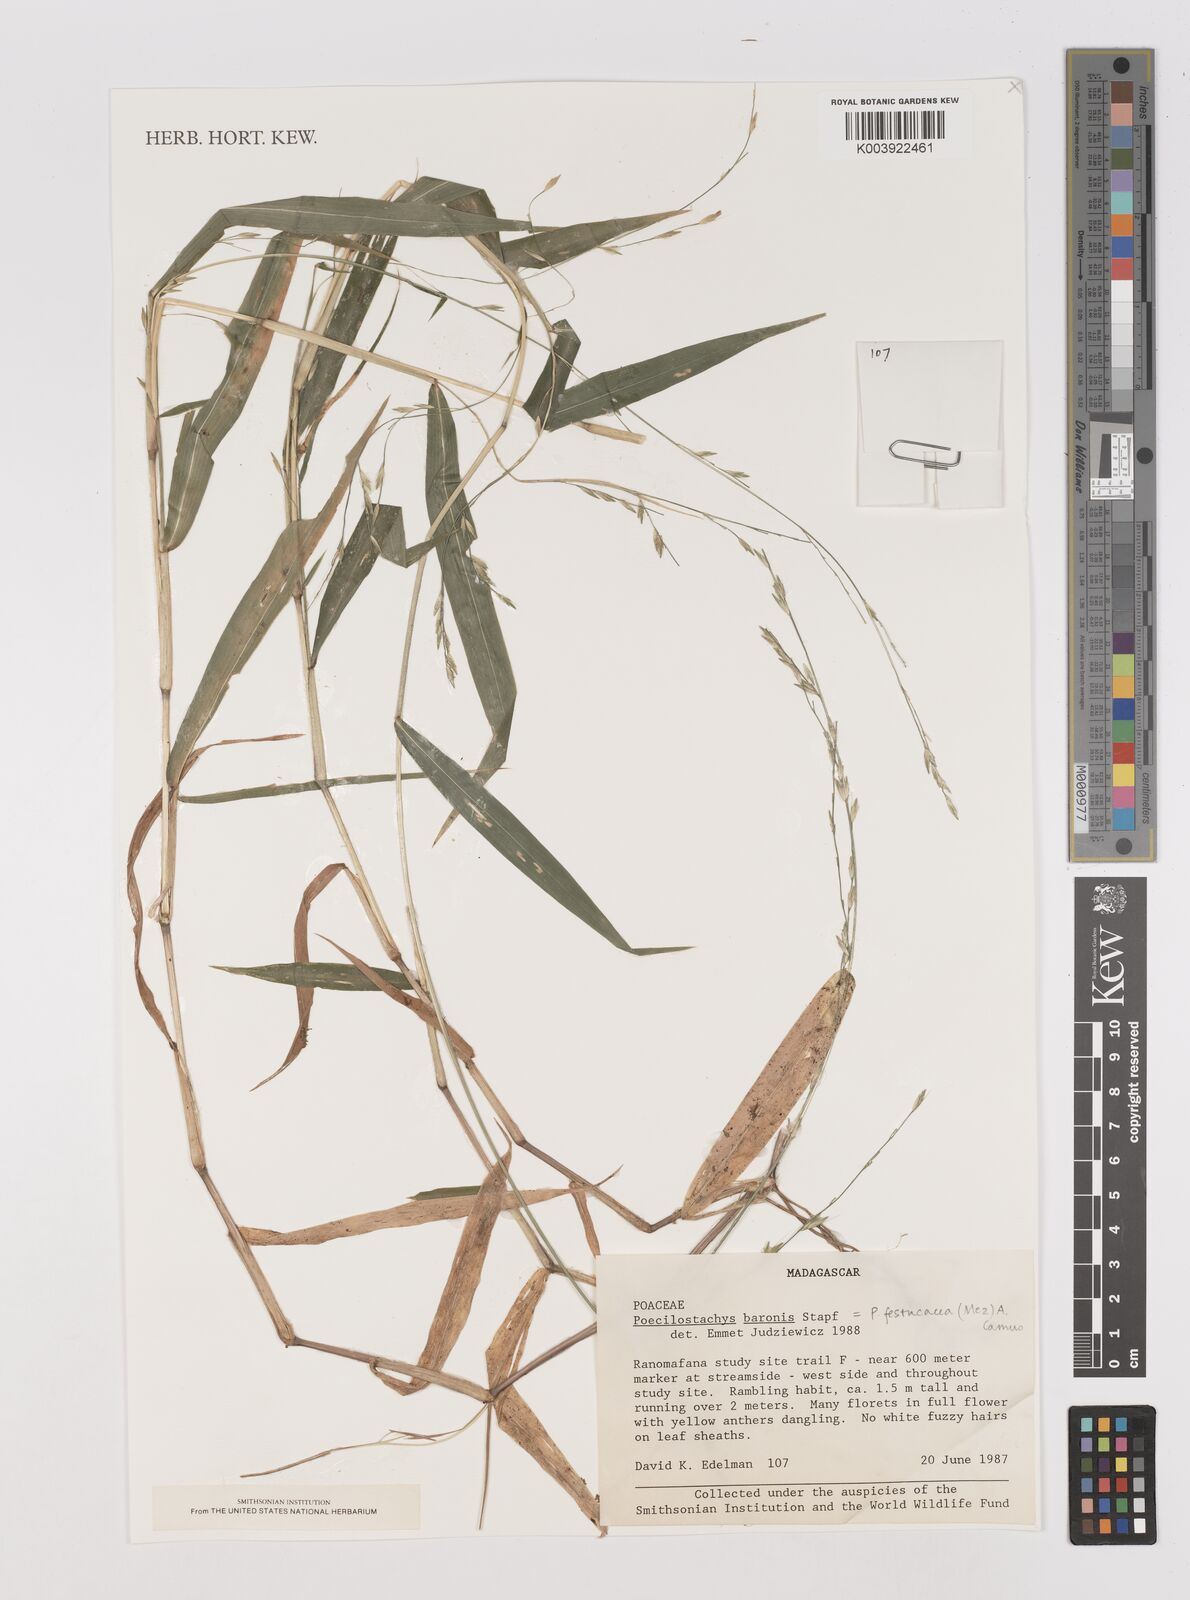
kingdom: Plantae
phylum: Tracheophyta
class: Liliopsida
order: Poales
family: Poaceae
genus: Poecilostachys
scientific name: Poecilostachys baronis
